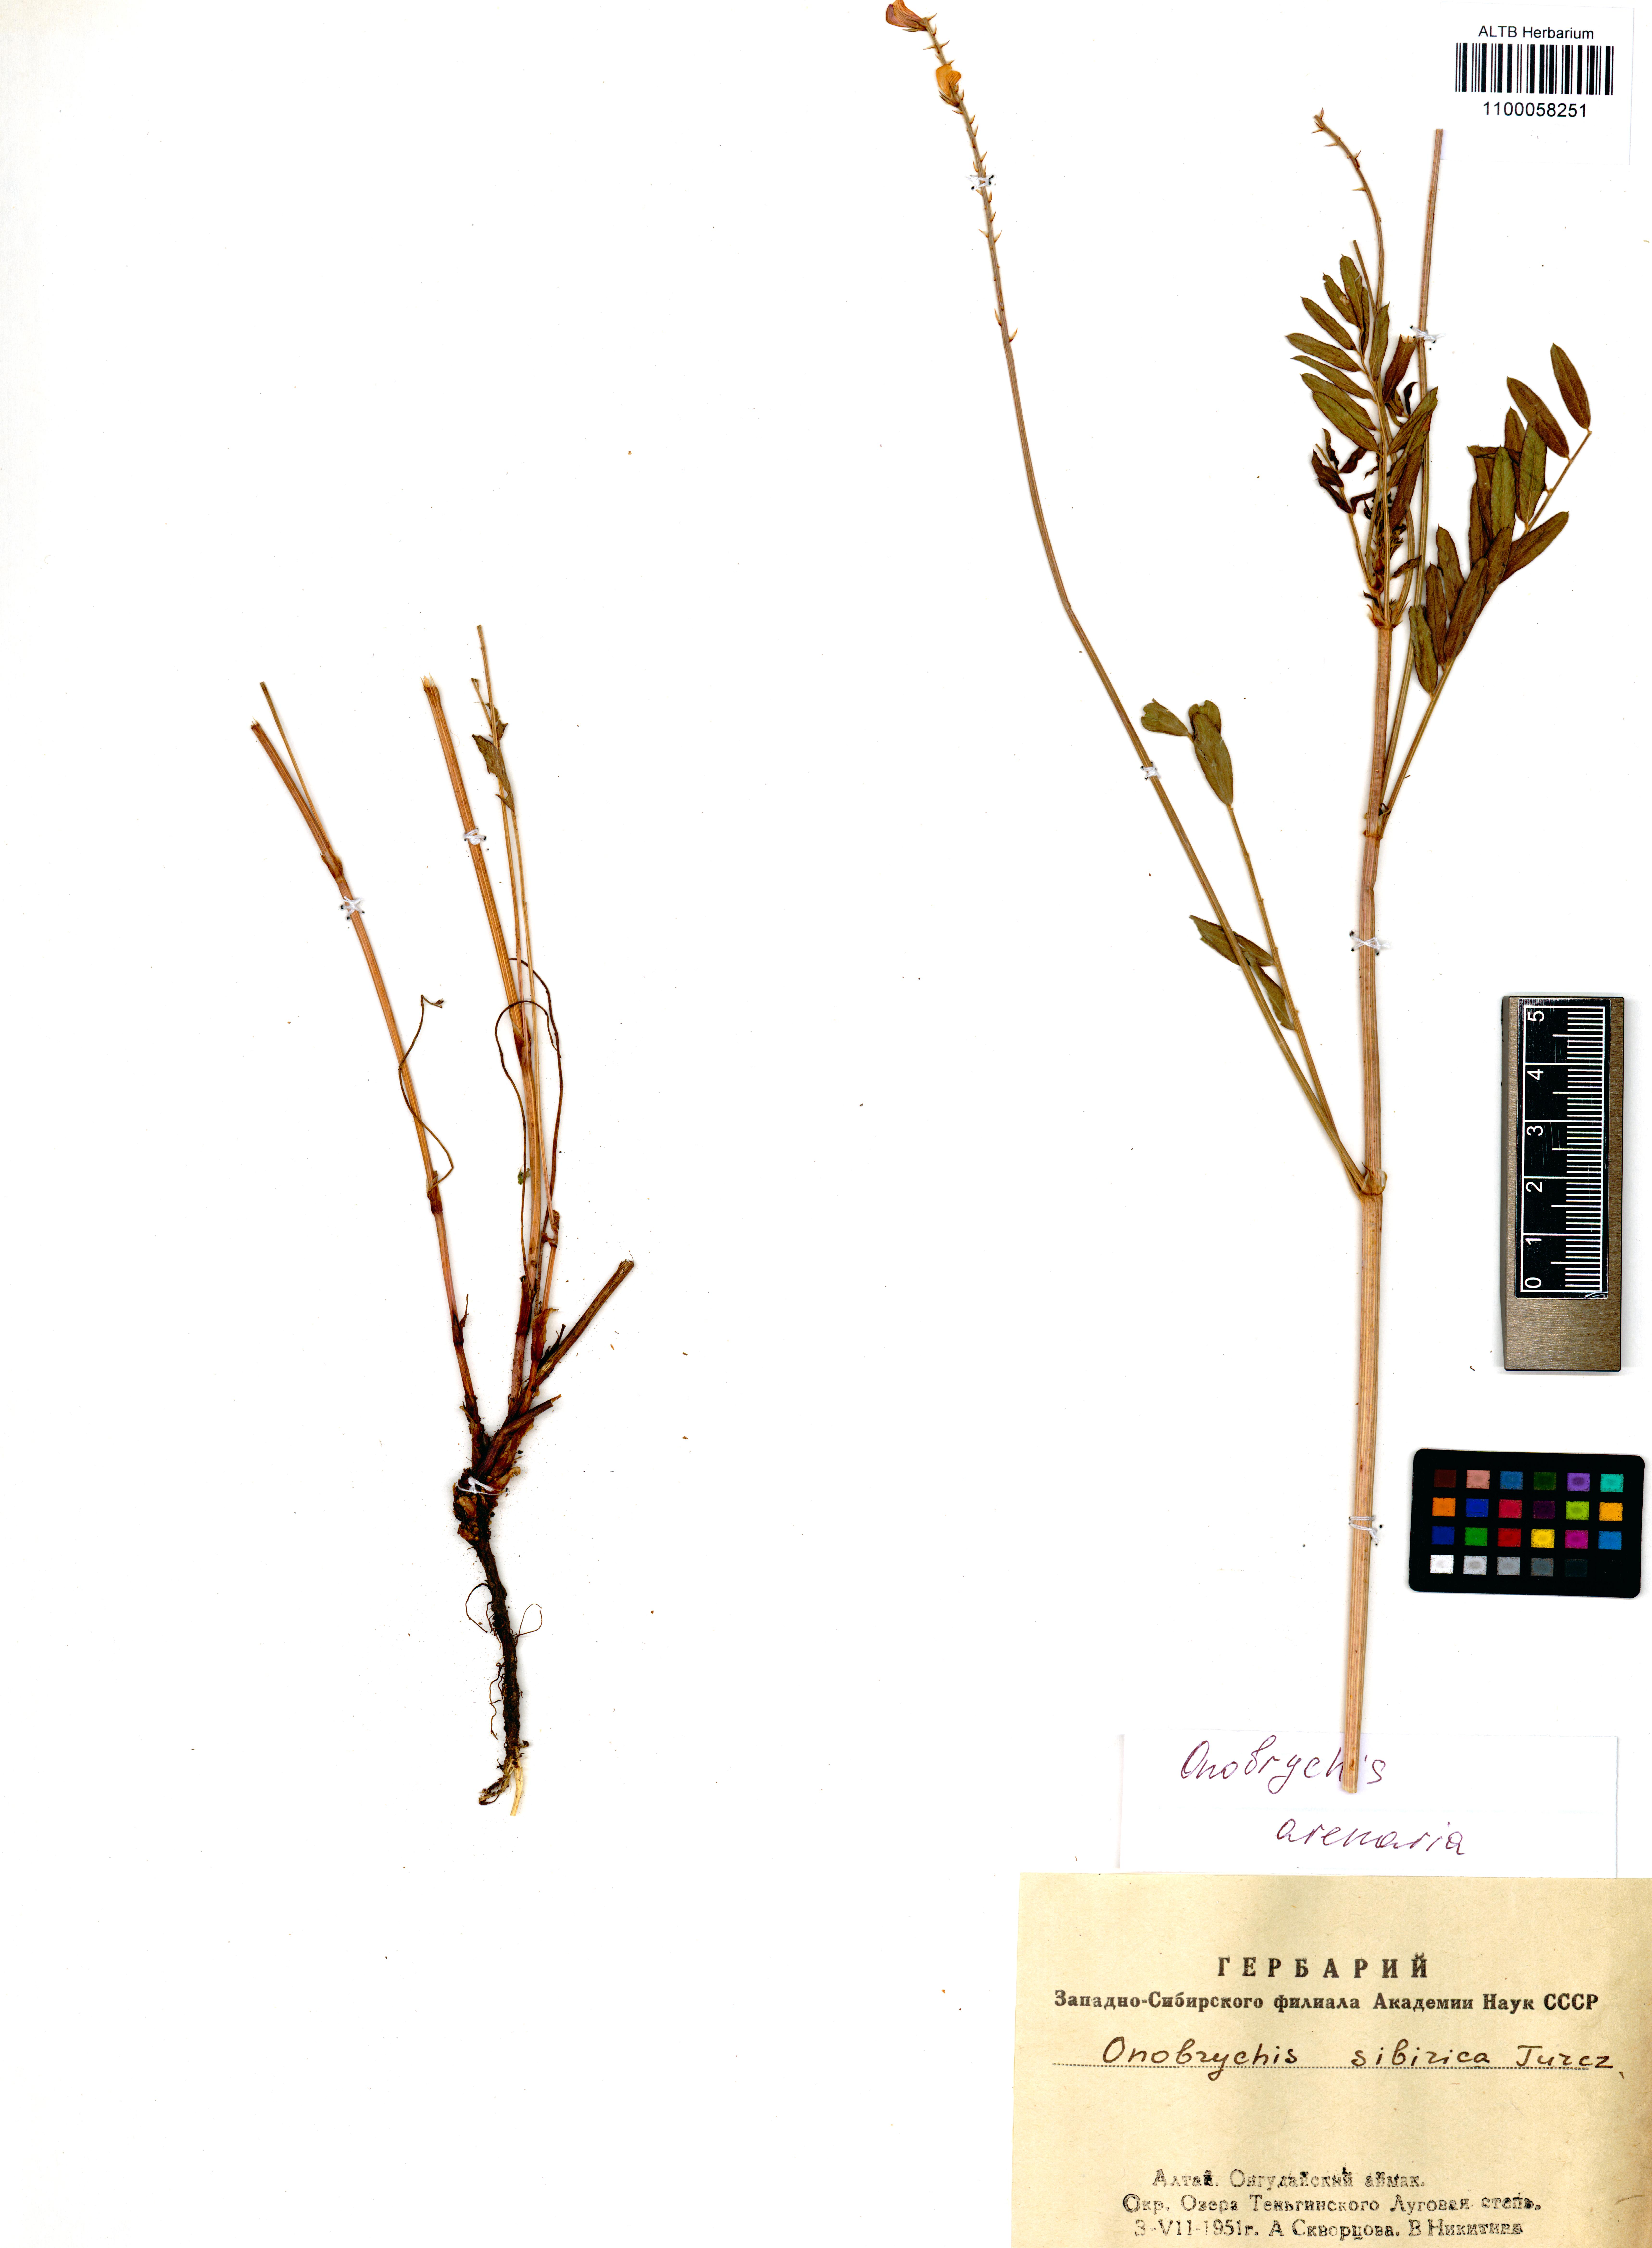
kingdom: Plantae
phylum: Tracheophyta
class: Magnoliopsida
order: Fabales
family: Fabaceae
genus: Onobrychis
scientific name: Onobrychis arenaria
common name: Sand esparcet
